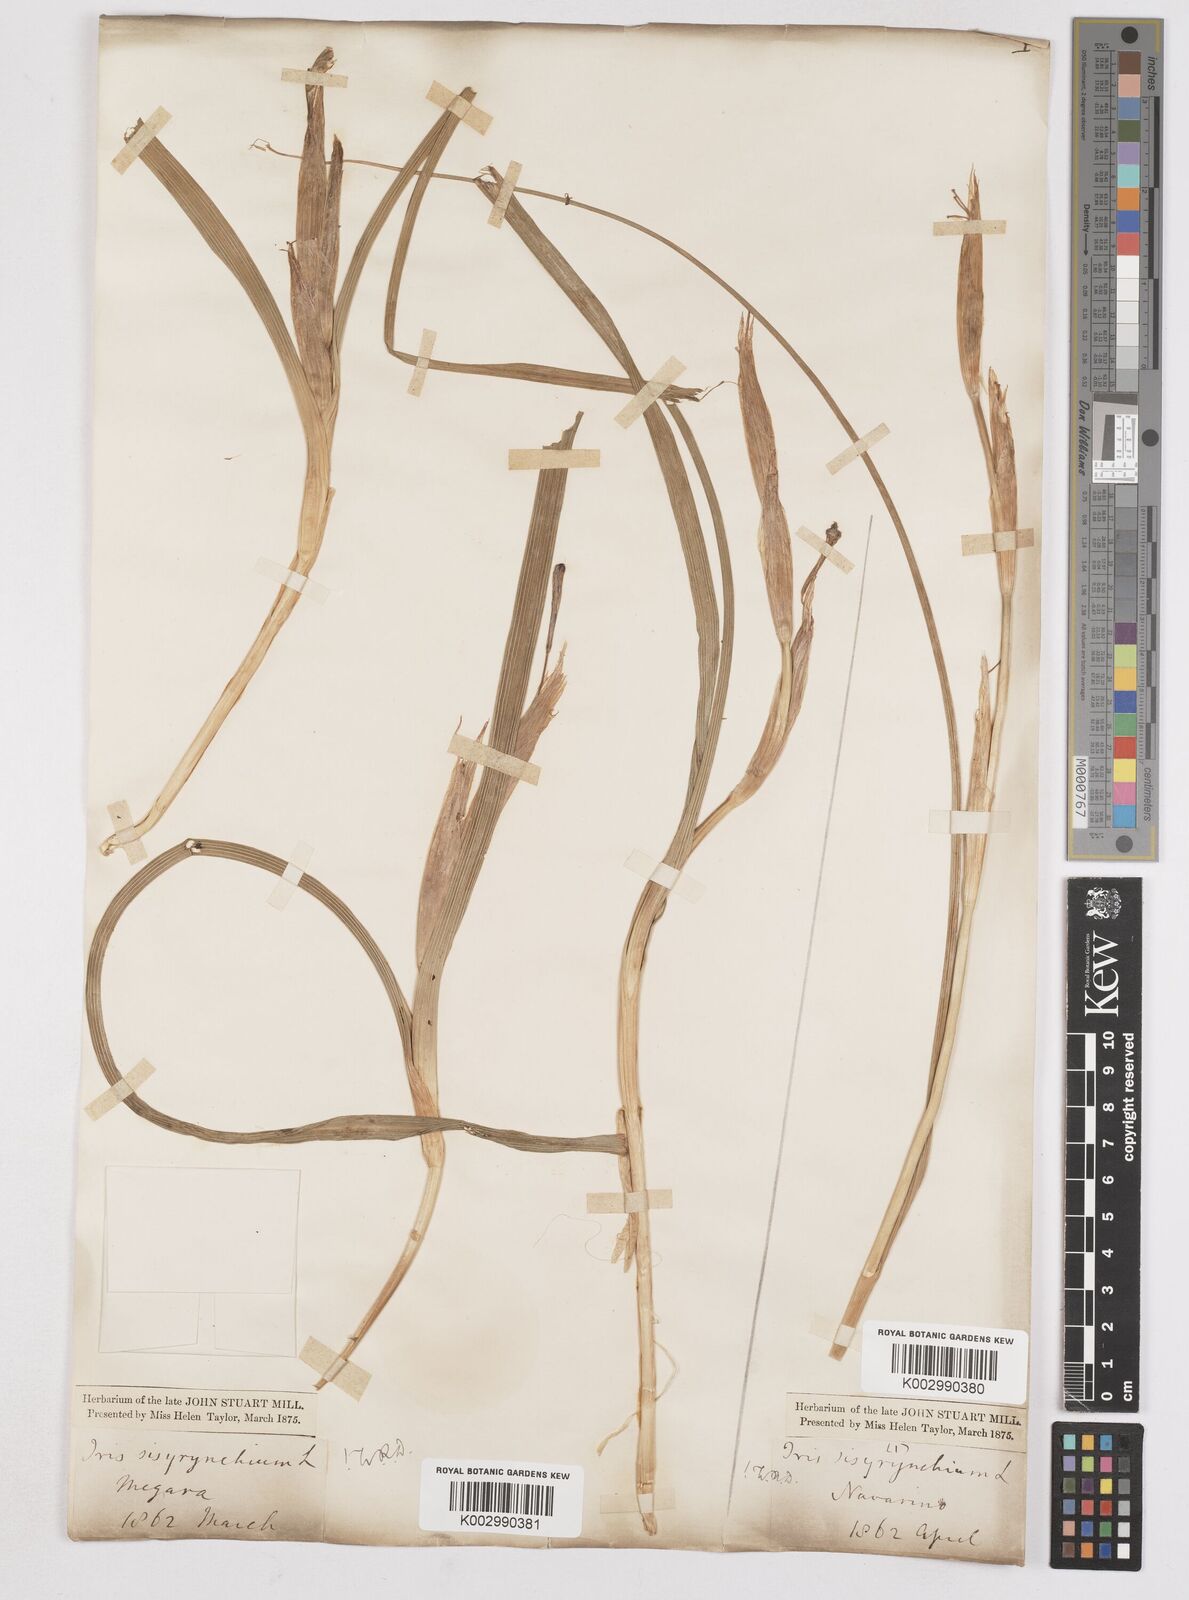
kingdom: Plantae
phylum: Tracheophyta
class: Liliopsida
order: Asparagales
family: Iridaceae
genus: Moraea
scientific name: Moraea sisyrinchium
